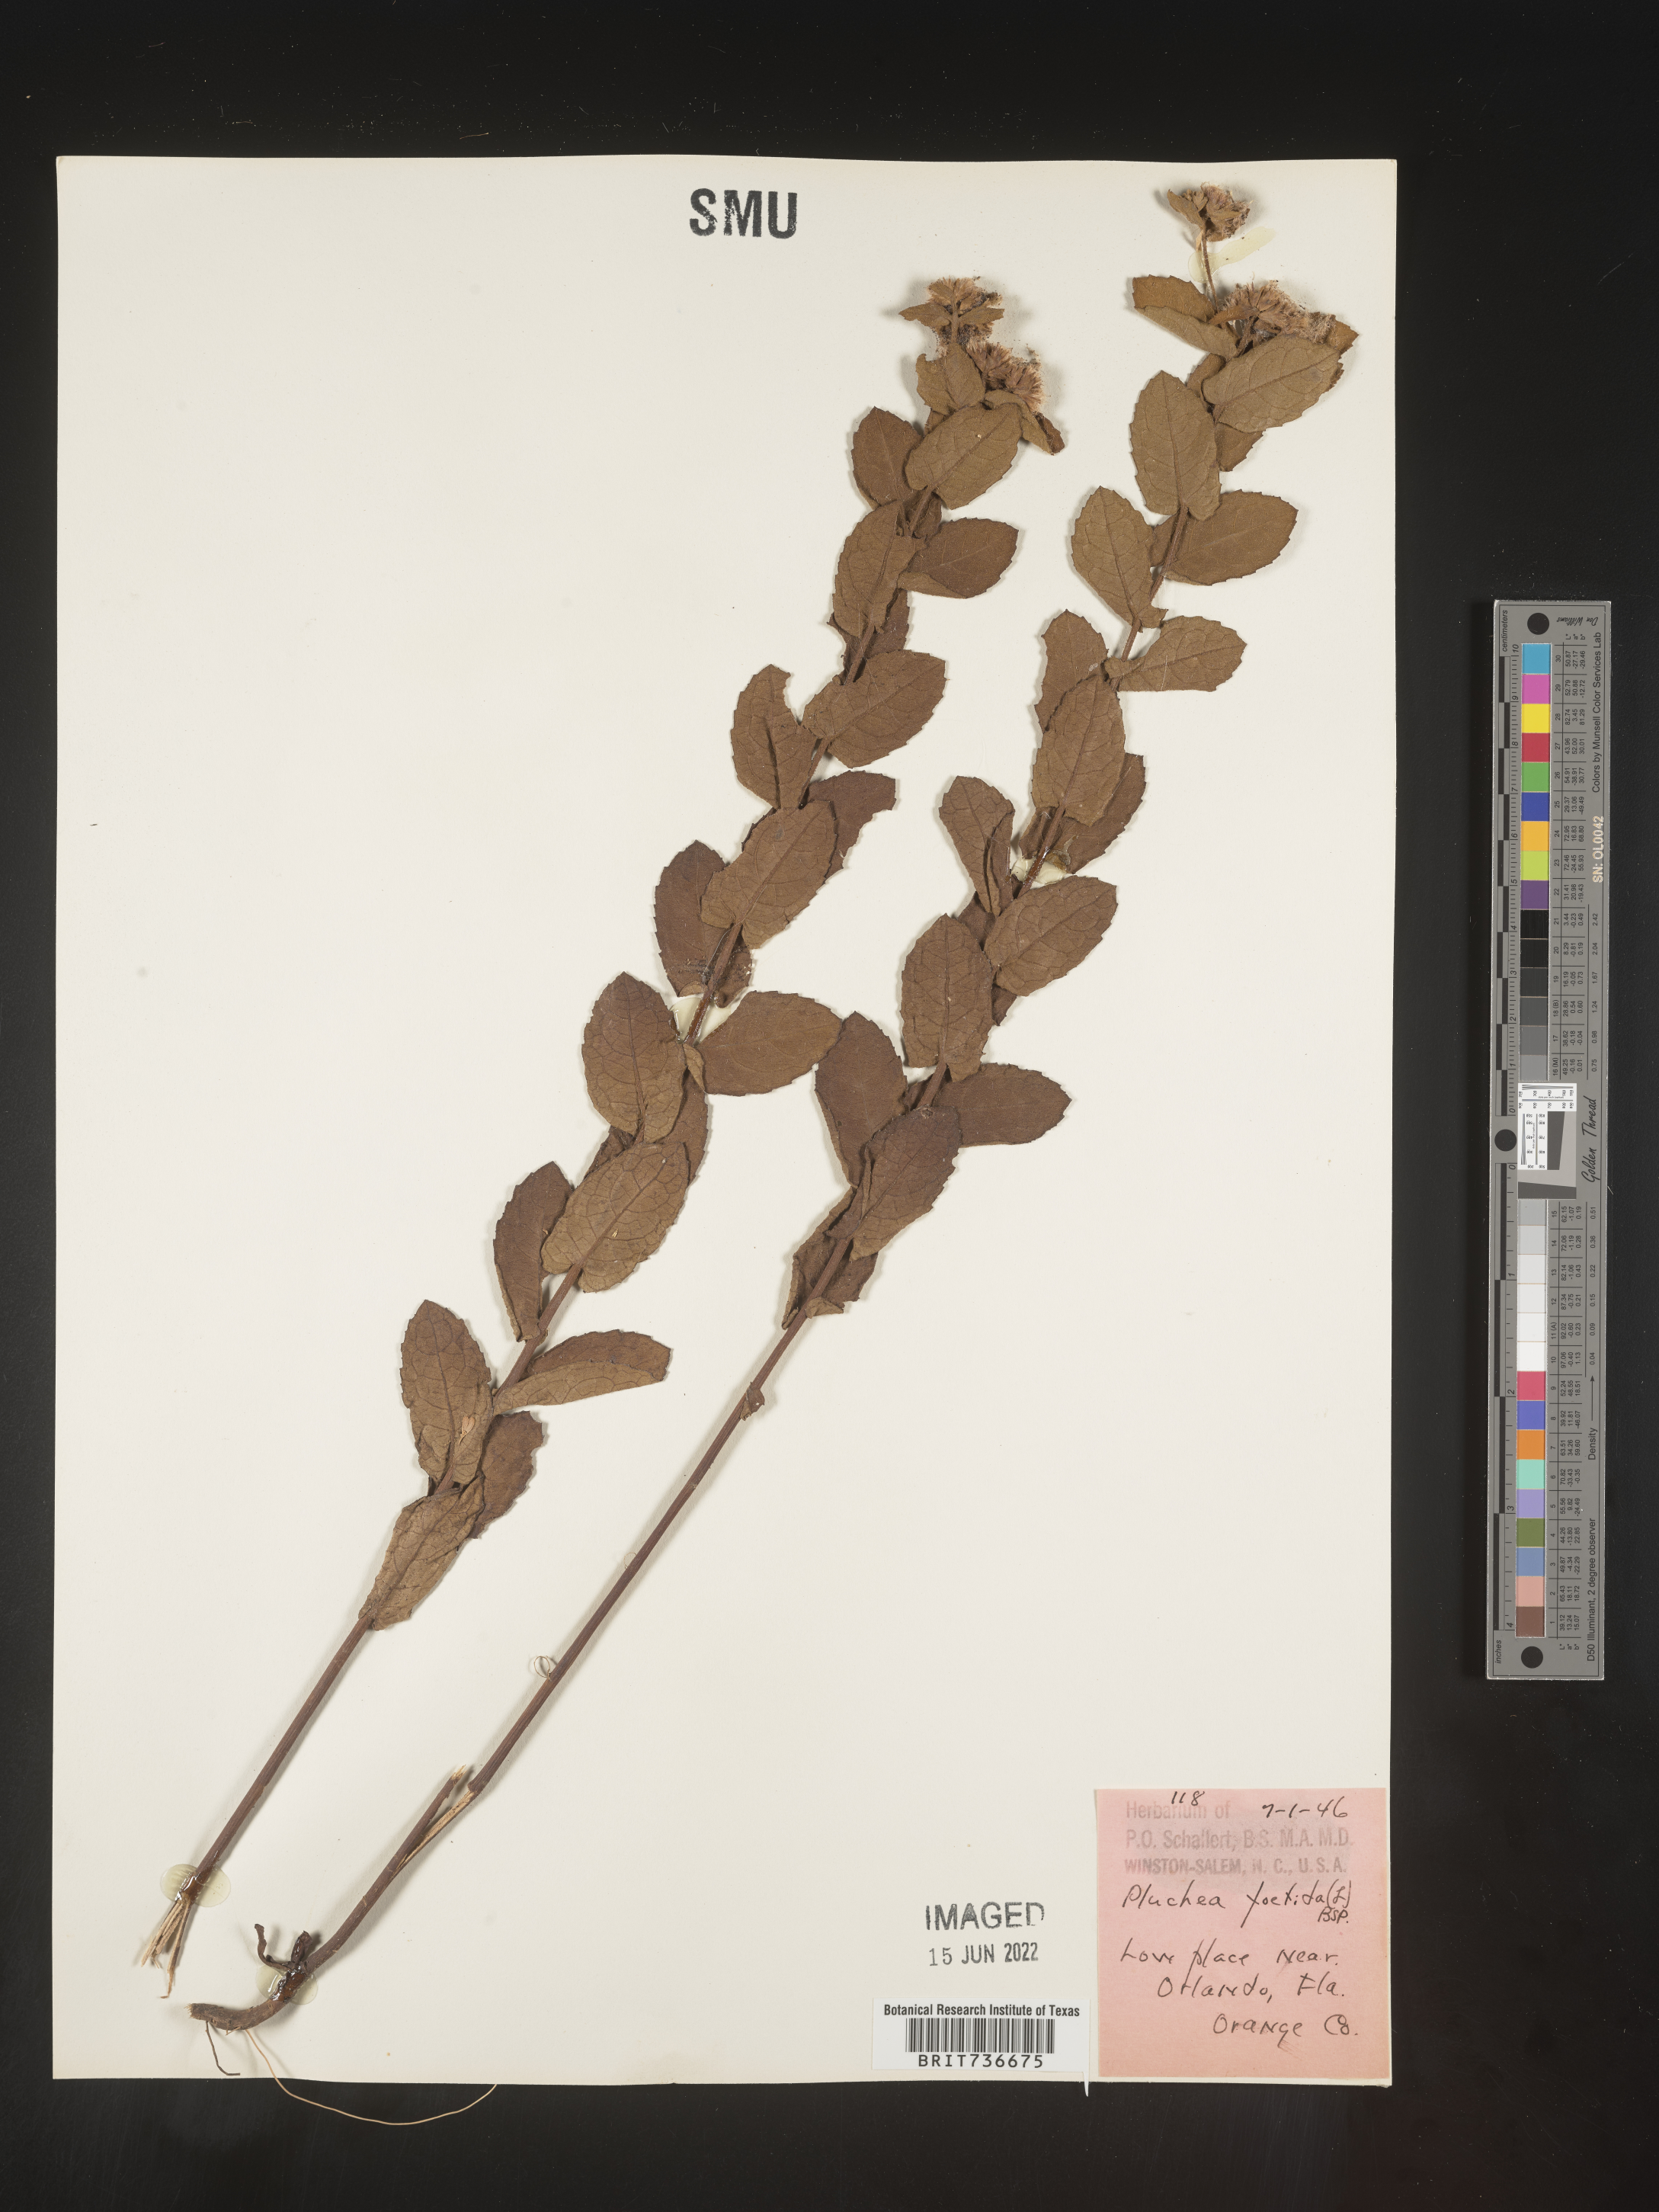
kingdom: Plantae
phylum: Tracheophyta
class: Magnoliopsida
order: Asterales
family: Asteraceae
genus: Pluchea
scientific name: Pluchea foetida
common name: Stinking camphorweed
